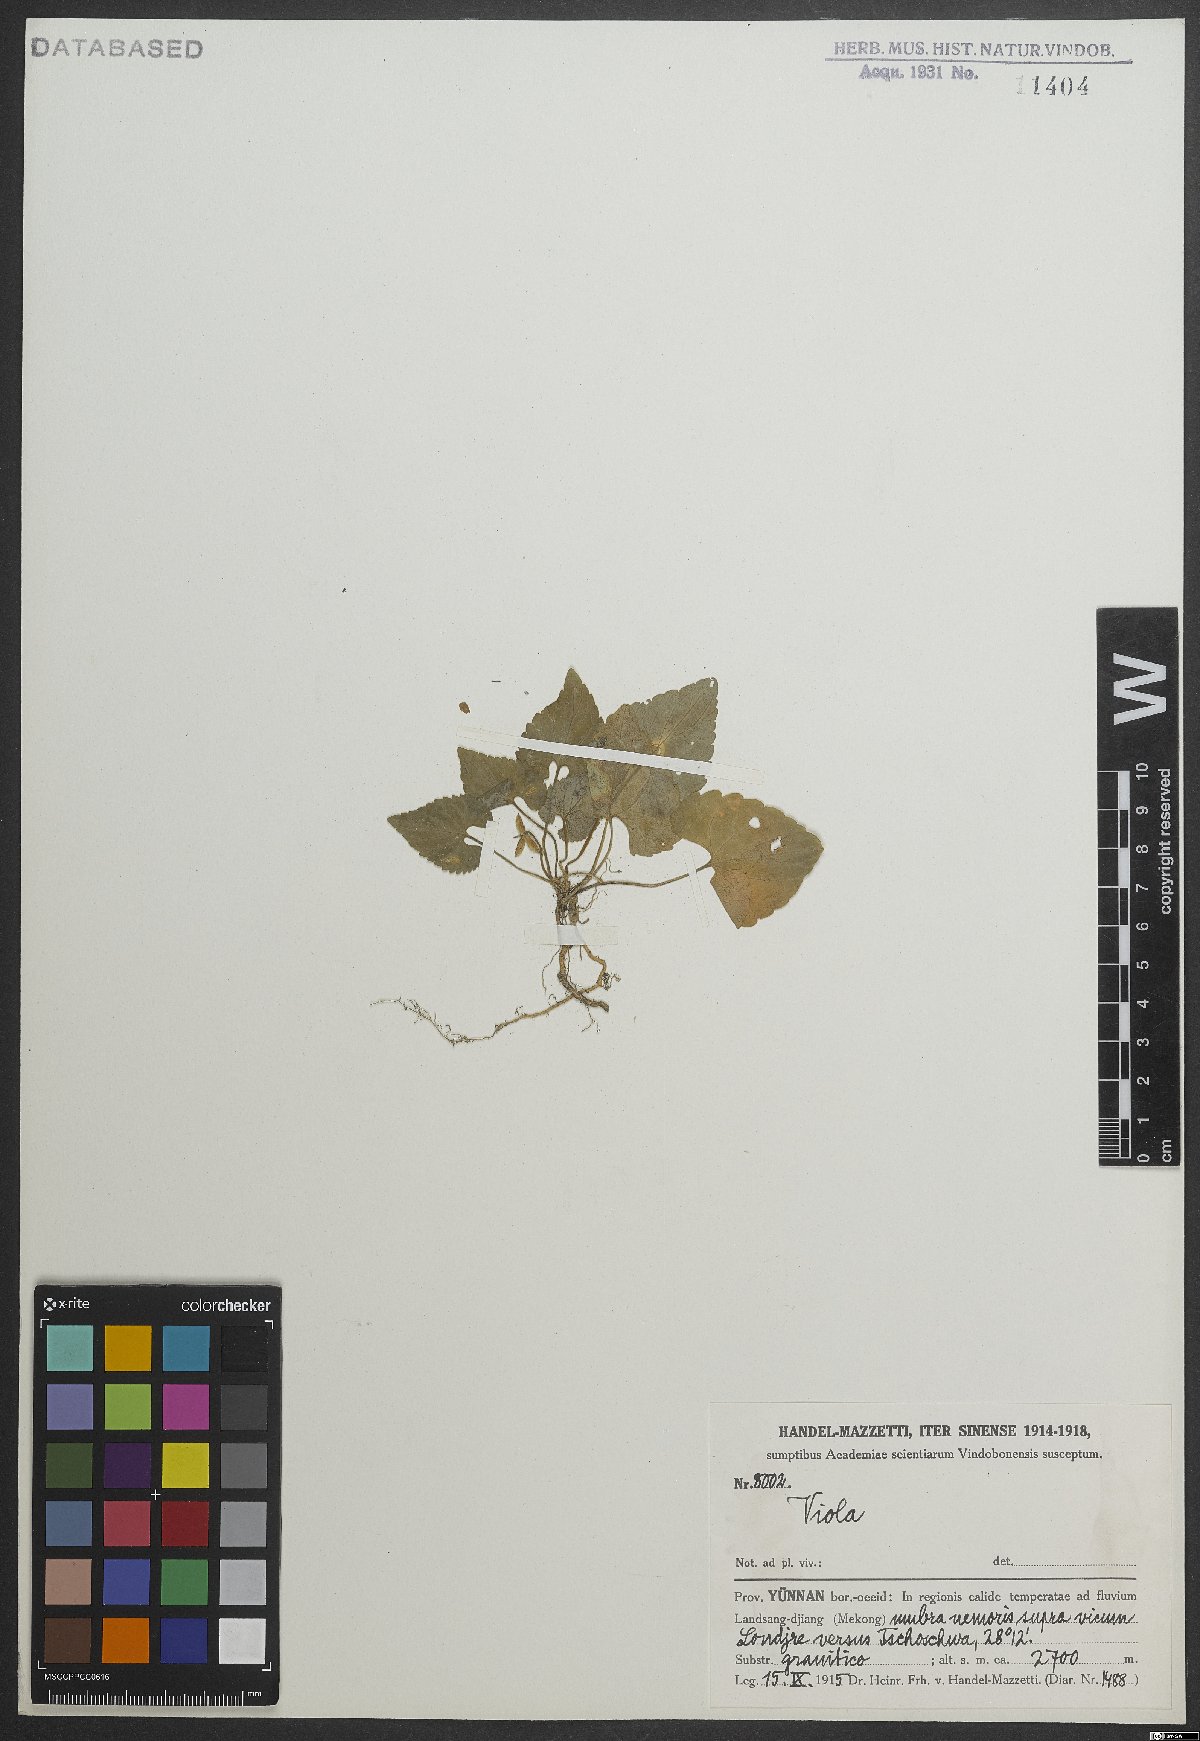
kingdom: Plantae
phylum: Tracheophyta
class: Magnoliopsida
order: Malpighiales
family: Violaceae
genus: Viola
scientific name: Viola
